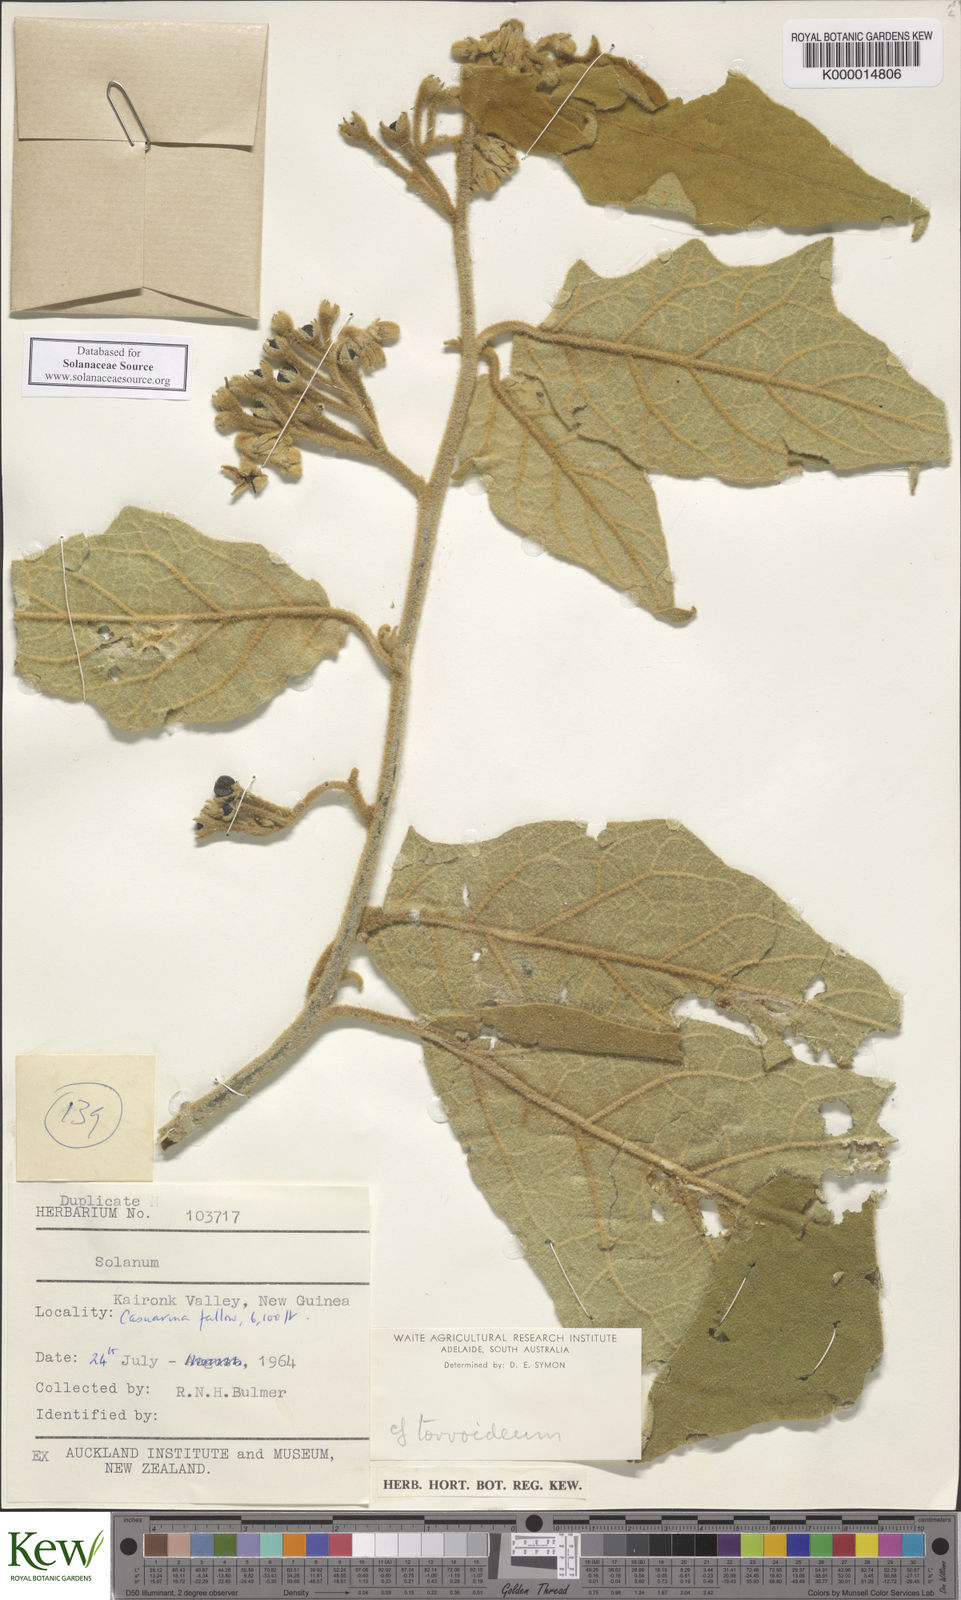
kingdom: Plantae
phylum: Tracheophyta
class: Magnoliopsida
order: Solanales
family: Solanaceae
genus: Solanum
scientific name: Solanum torvoideum
